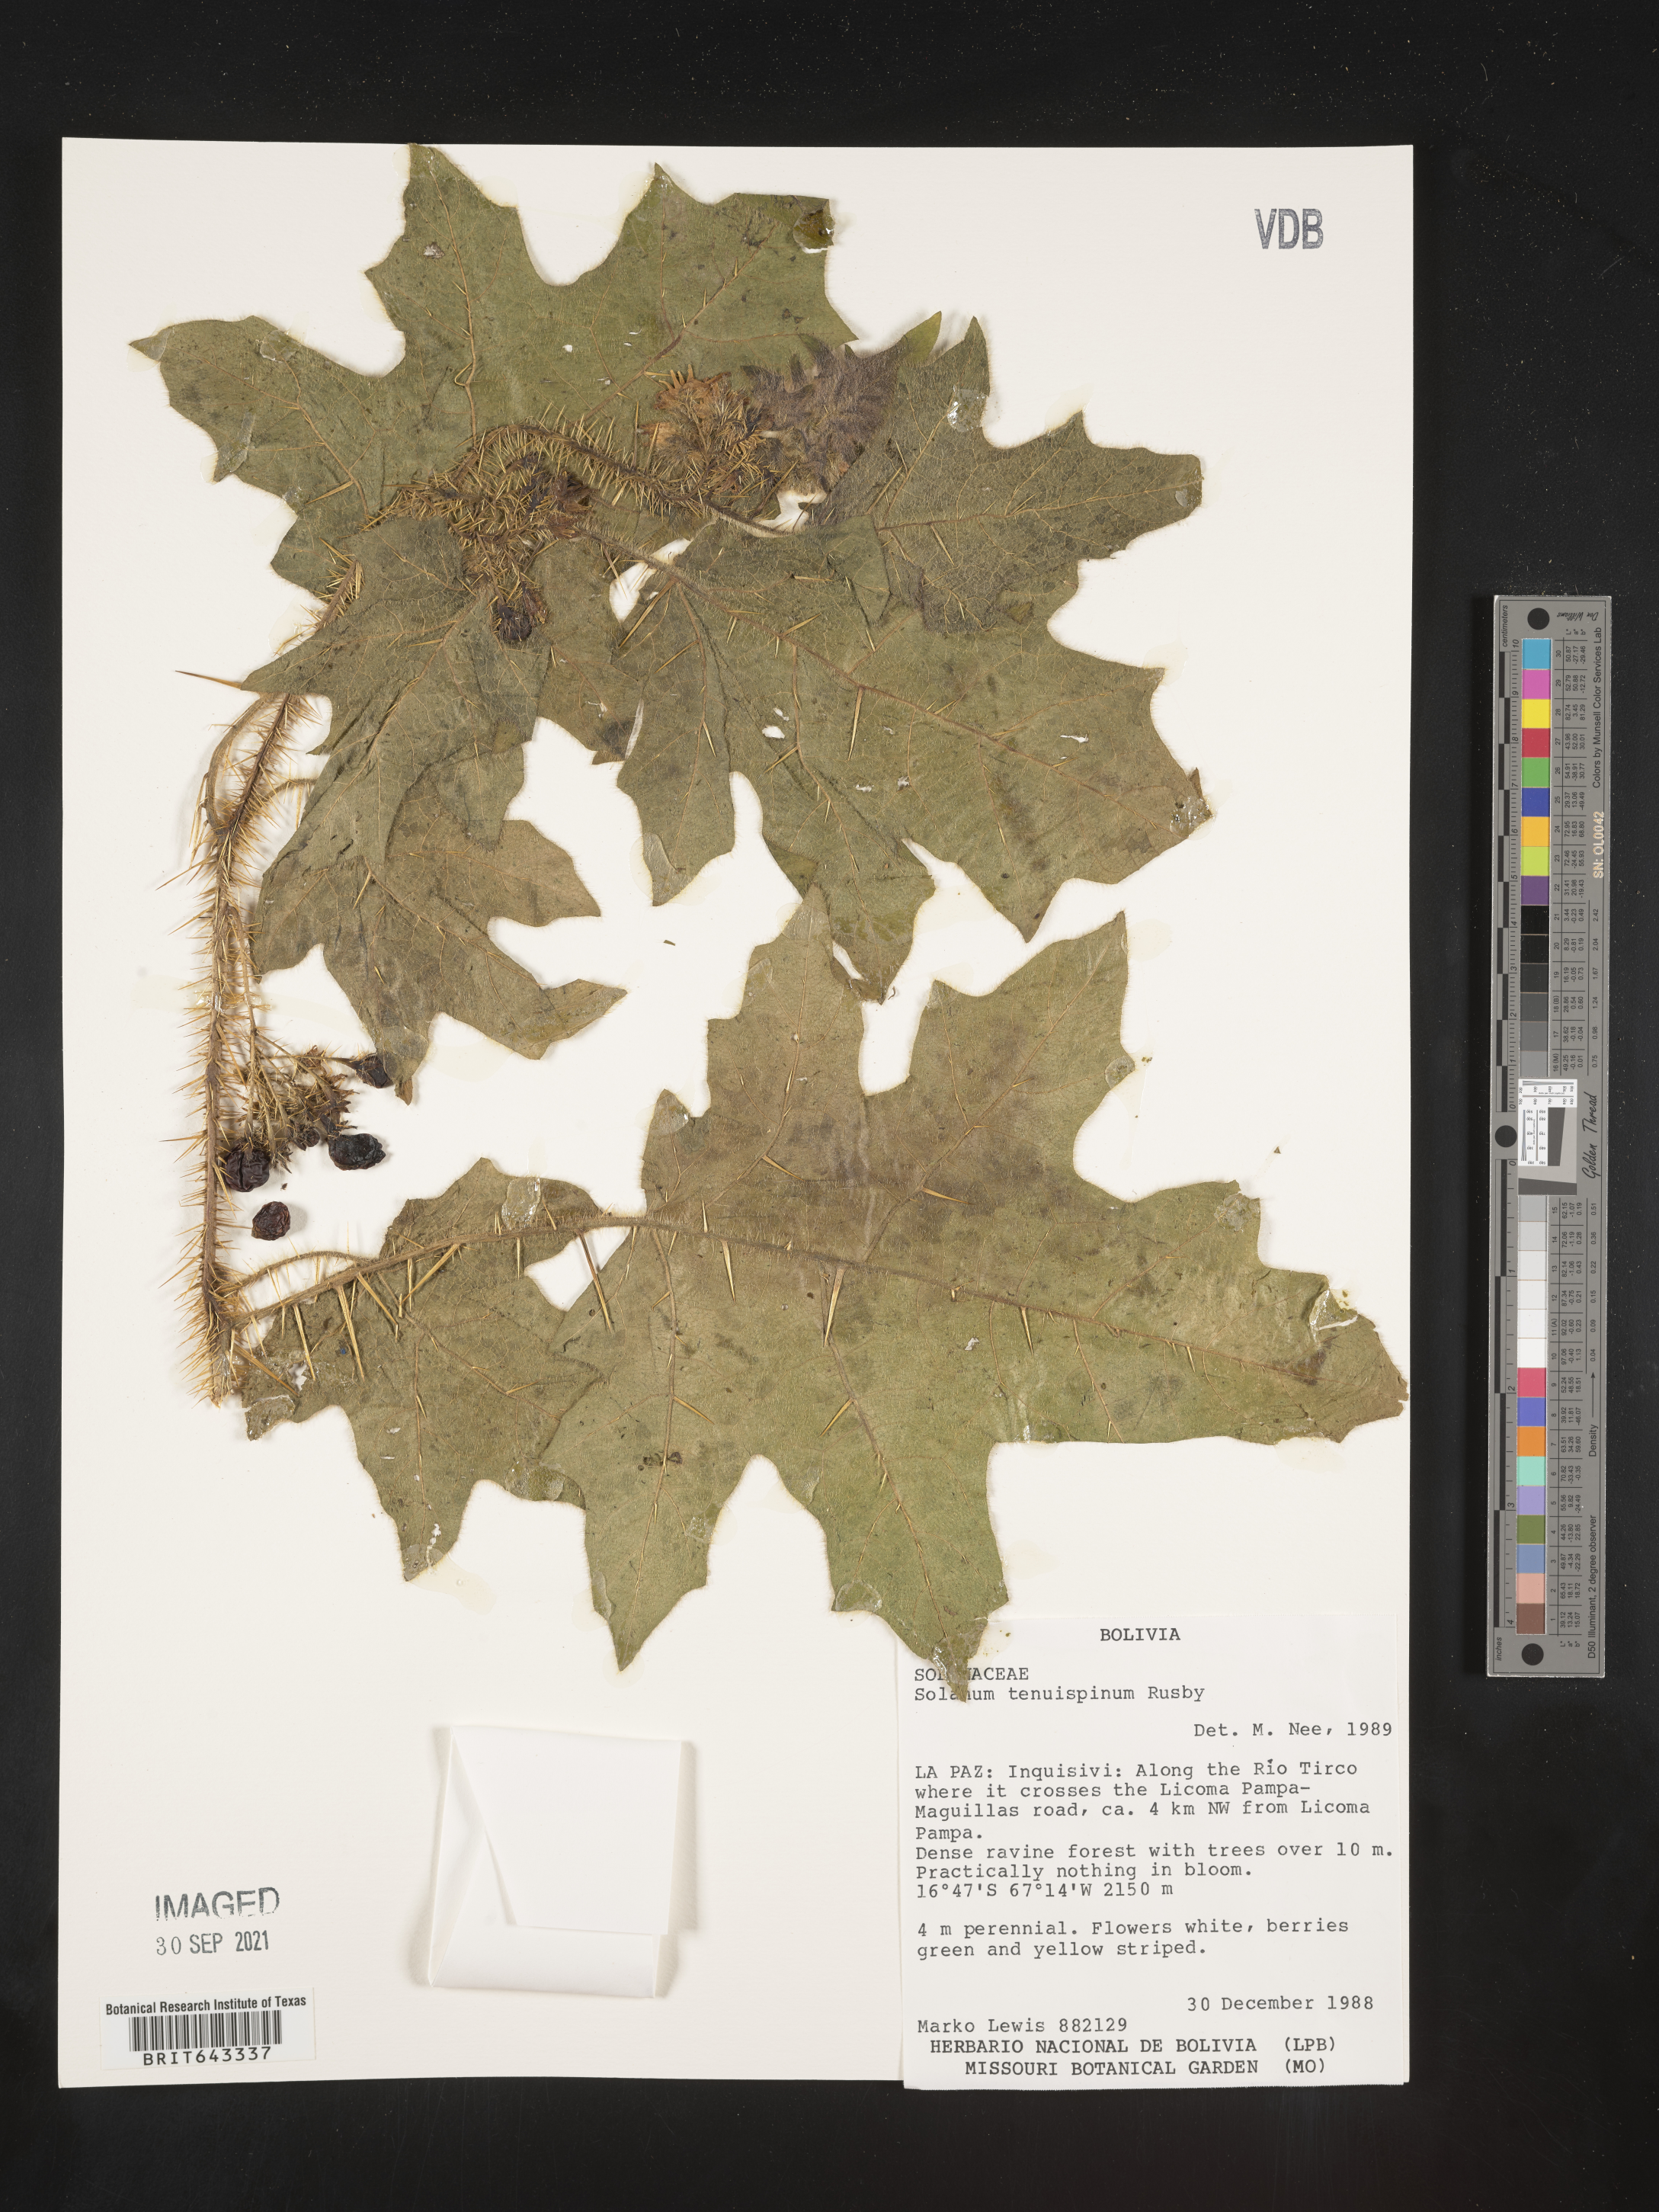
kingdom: Plantae
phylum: Tracheophyta
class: Magnoliopsida
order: Solanales
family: Solanaceae
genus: Solanum
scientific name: Solanum
